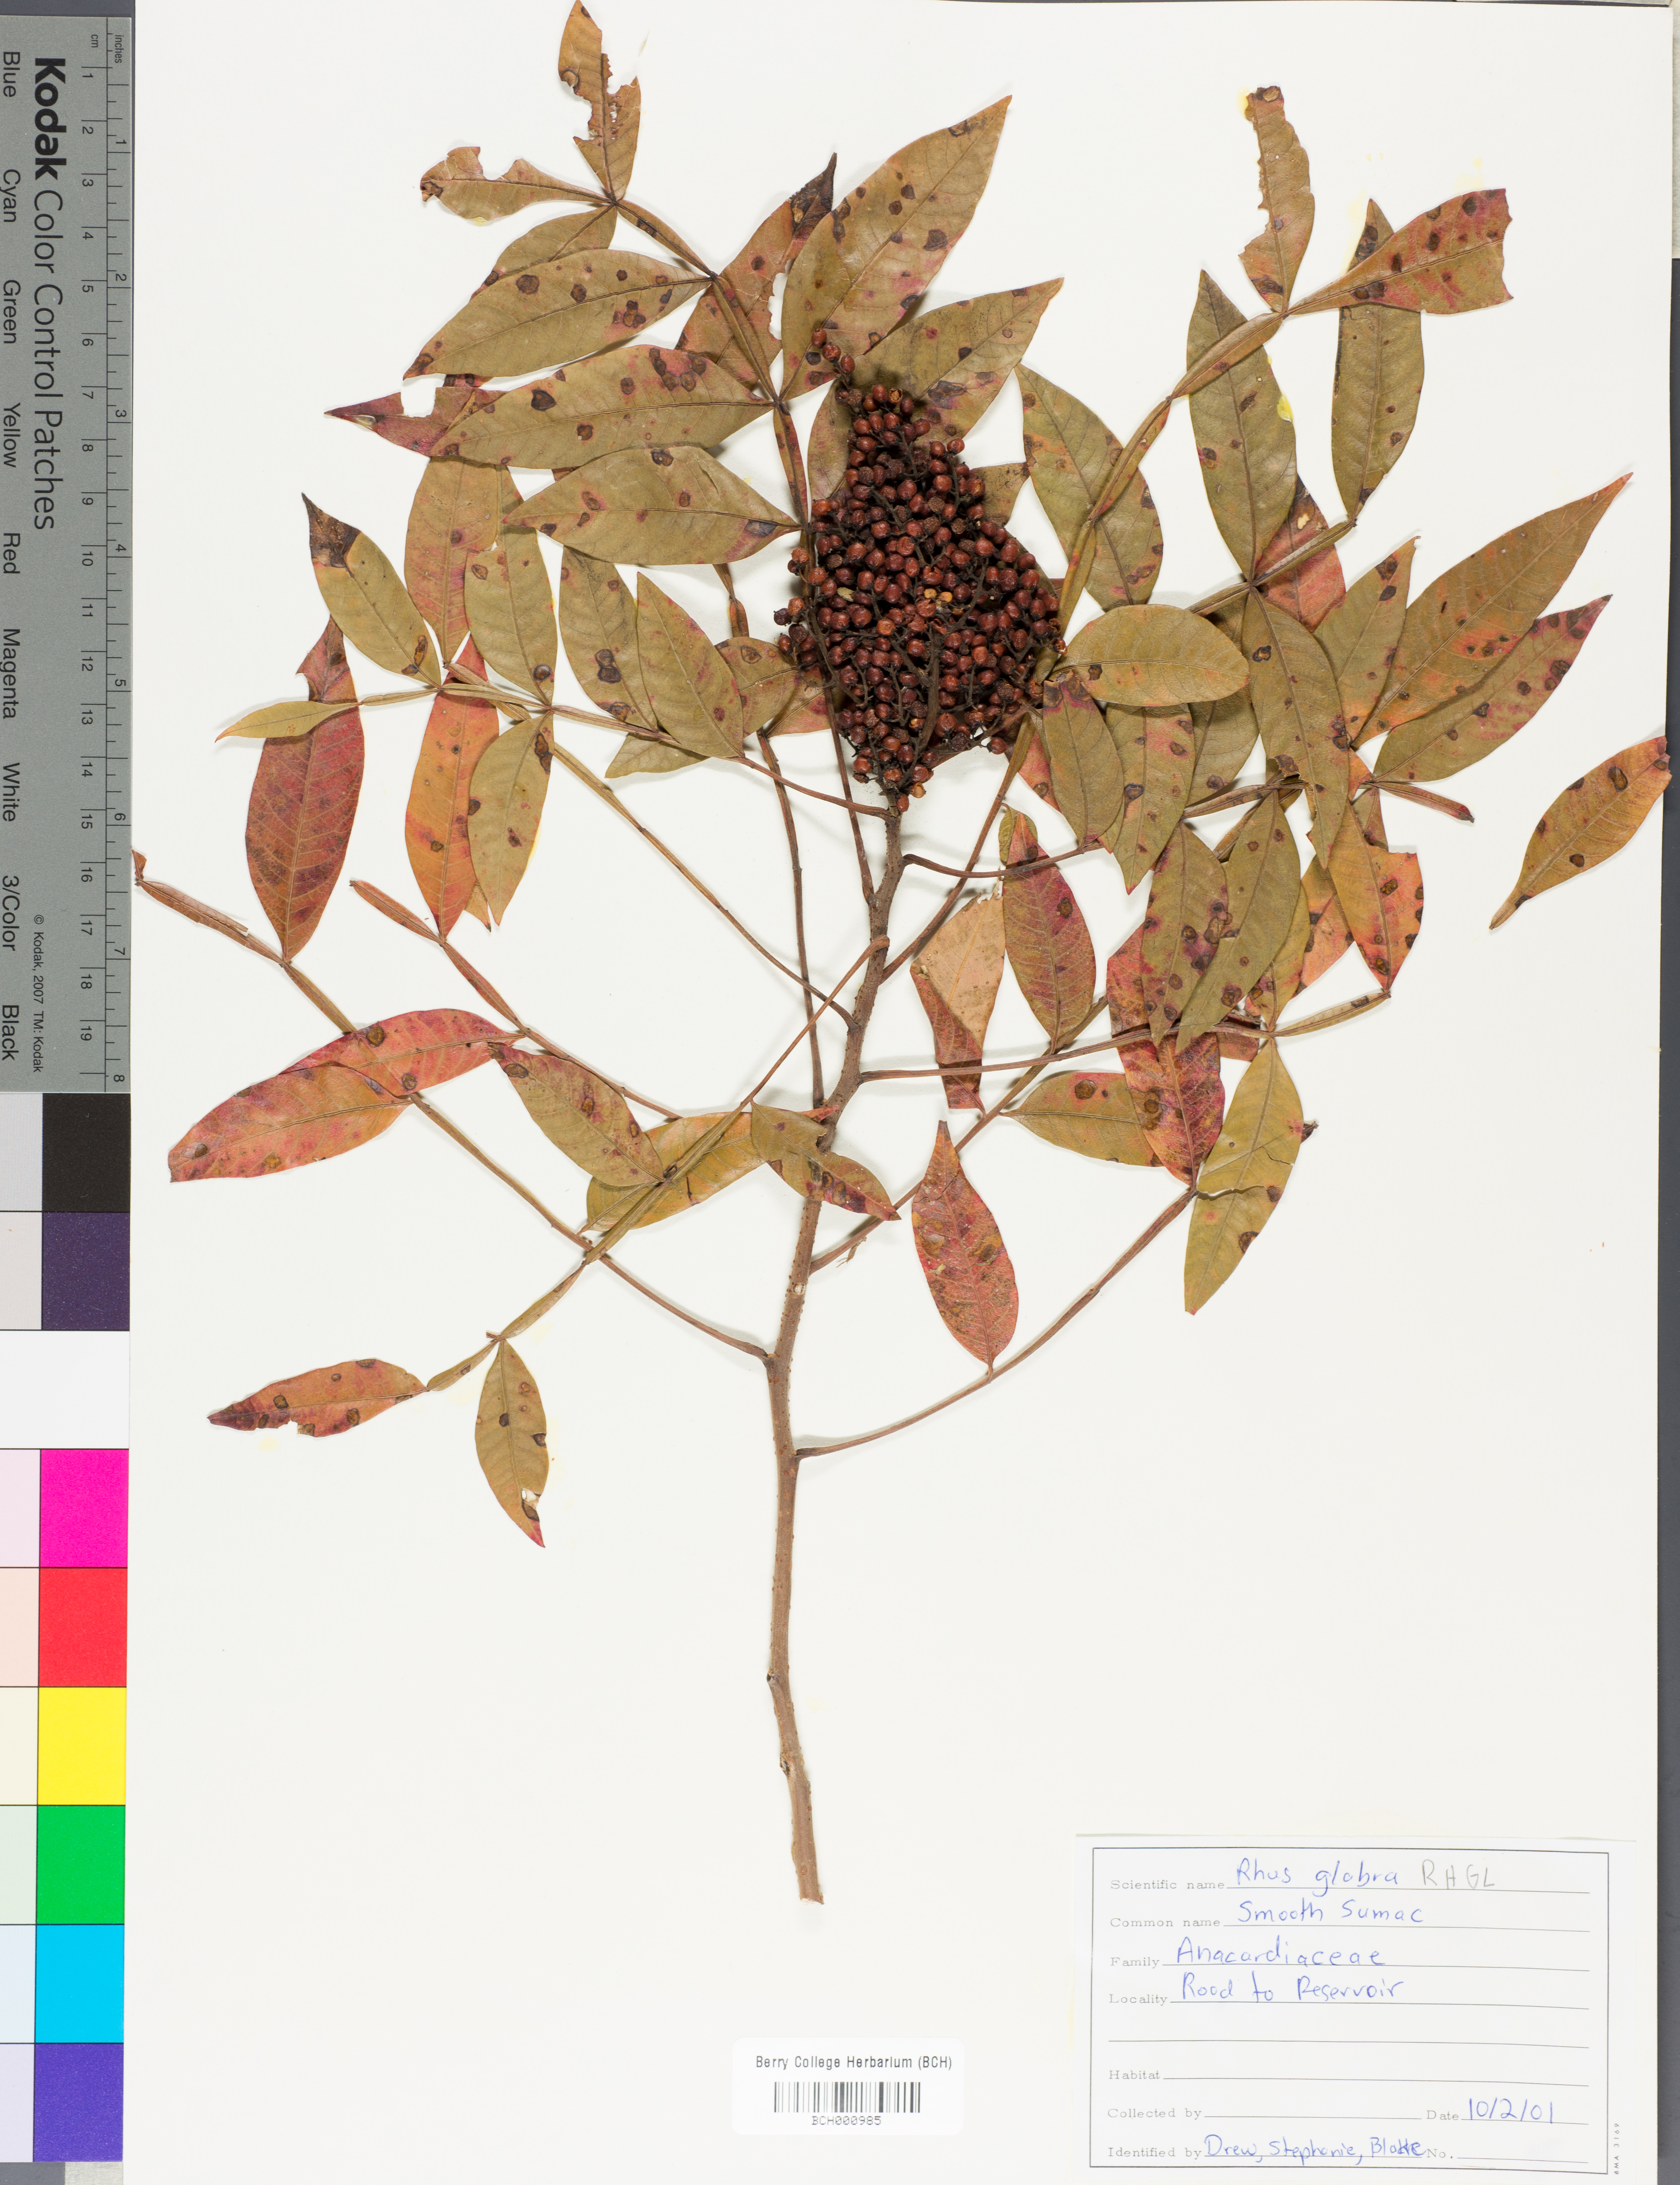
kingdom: Plantae
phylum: Tracheophyta
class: Magnoliopsida
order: Sapindales
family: Anacardiaceae
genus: Rhus
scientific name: Rhus glabra
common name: Scarlet sumac
